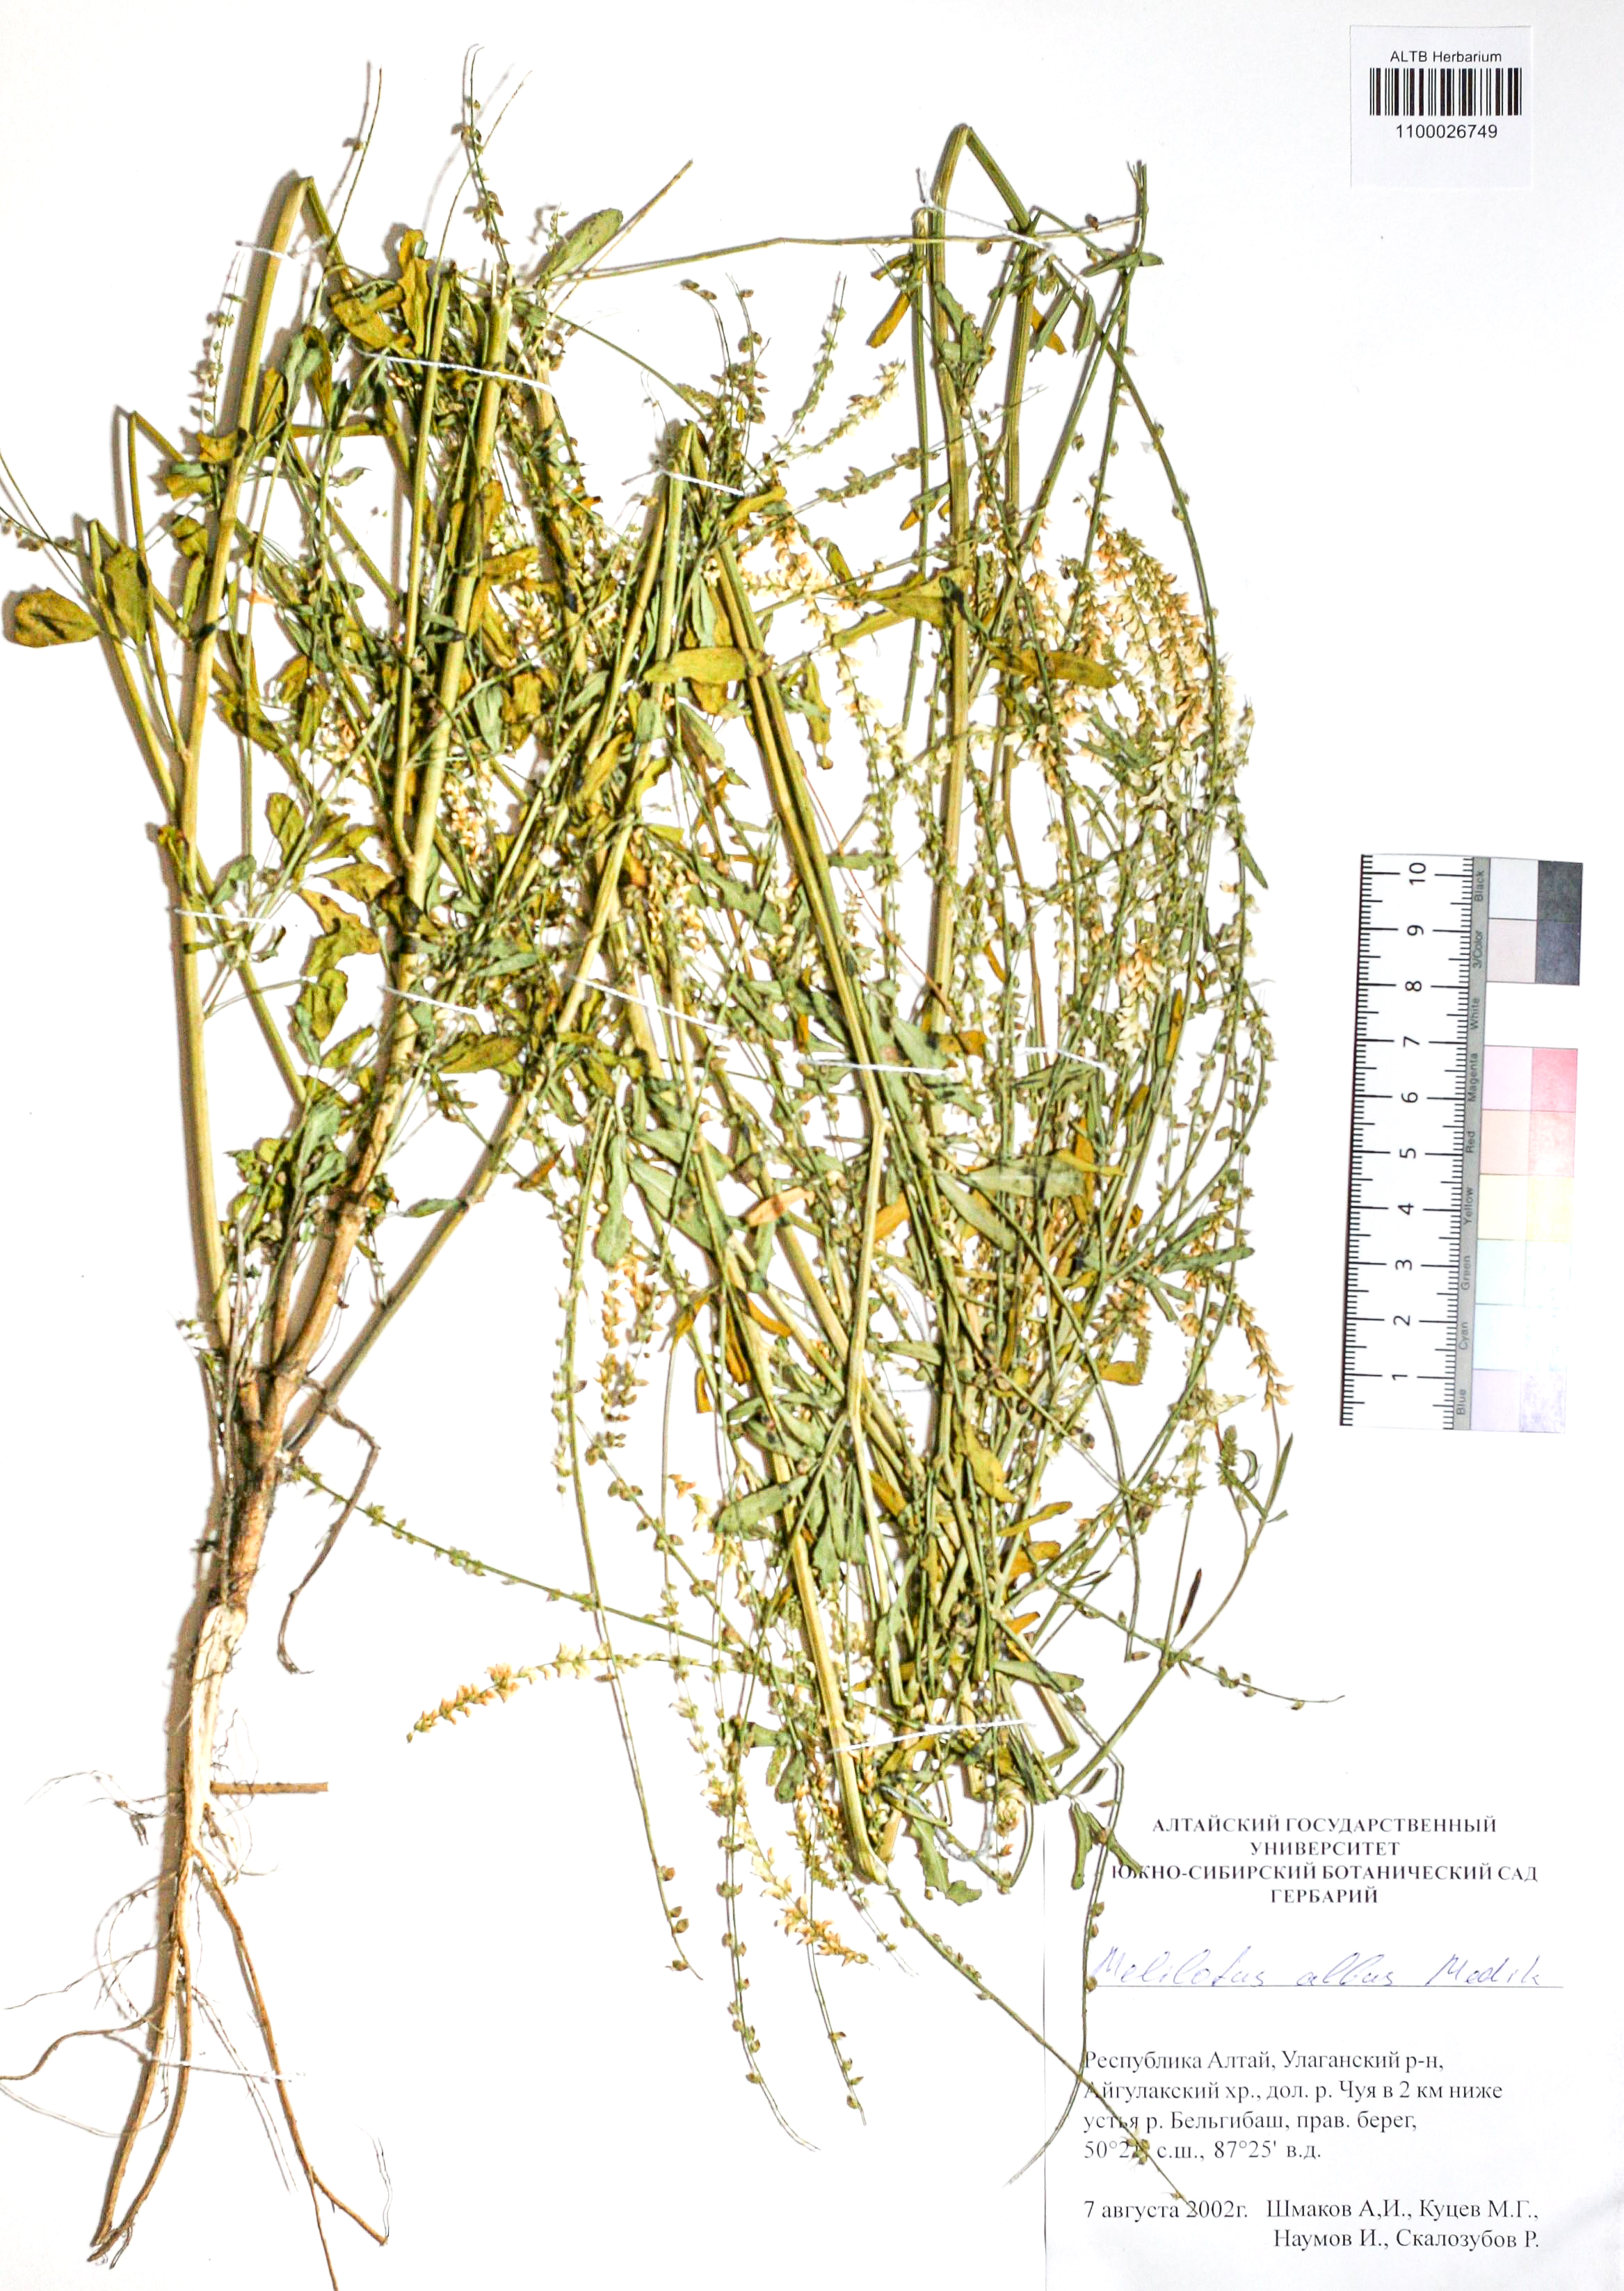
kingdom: Plantae
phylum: Tracheophyta
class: Magnoliopsida
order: Fabales
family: Fabaceae
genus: Melilotus
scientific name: Melilotus albus
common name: White melilot
